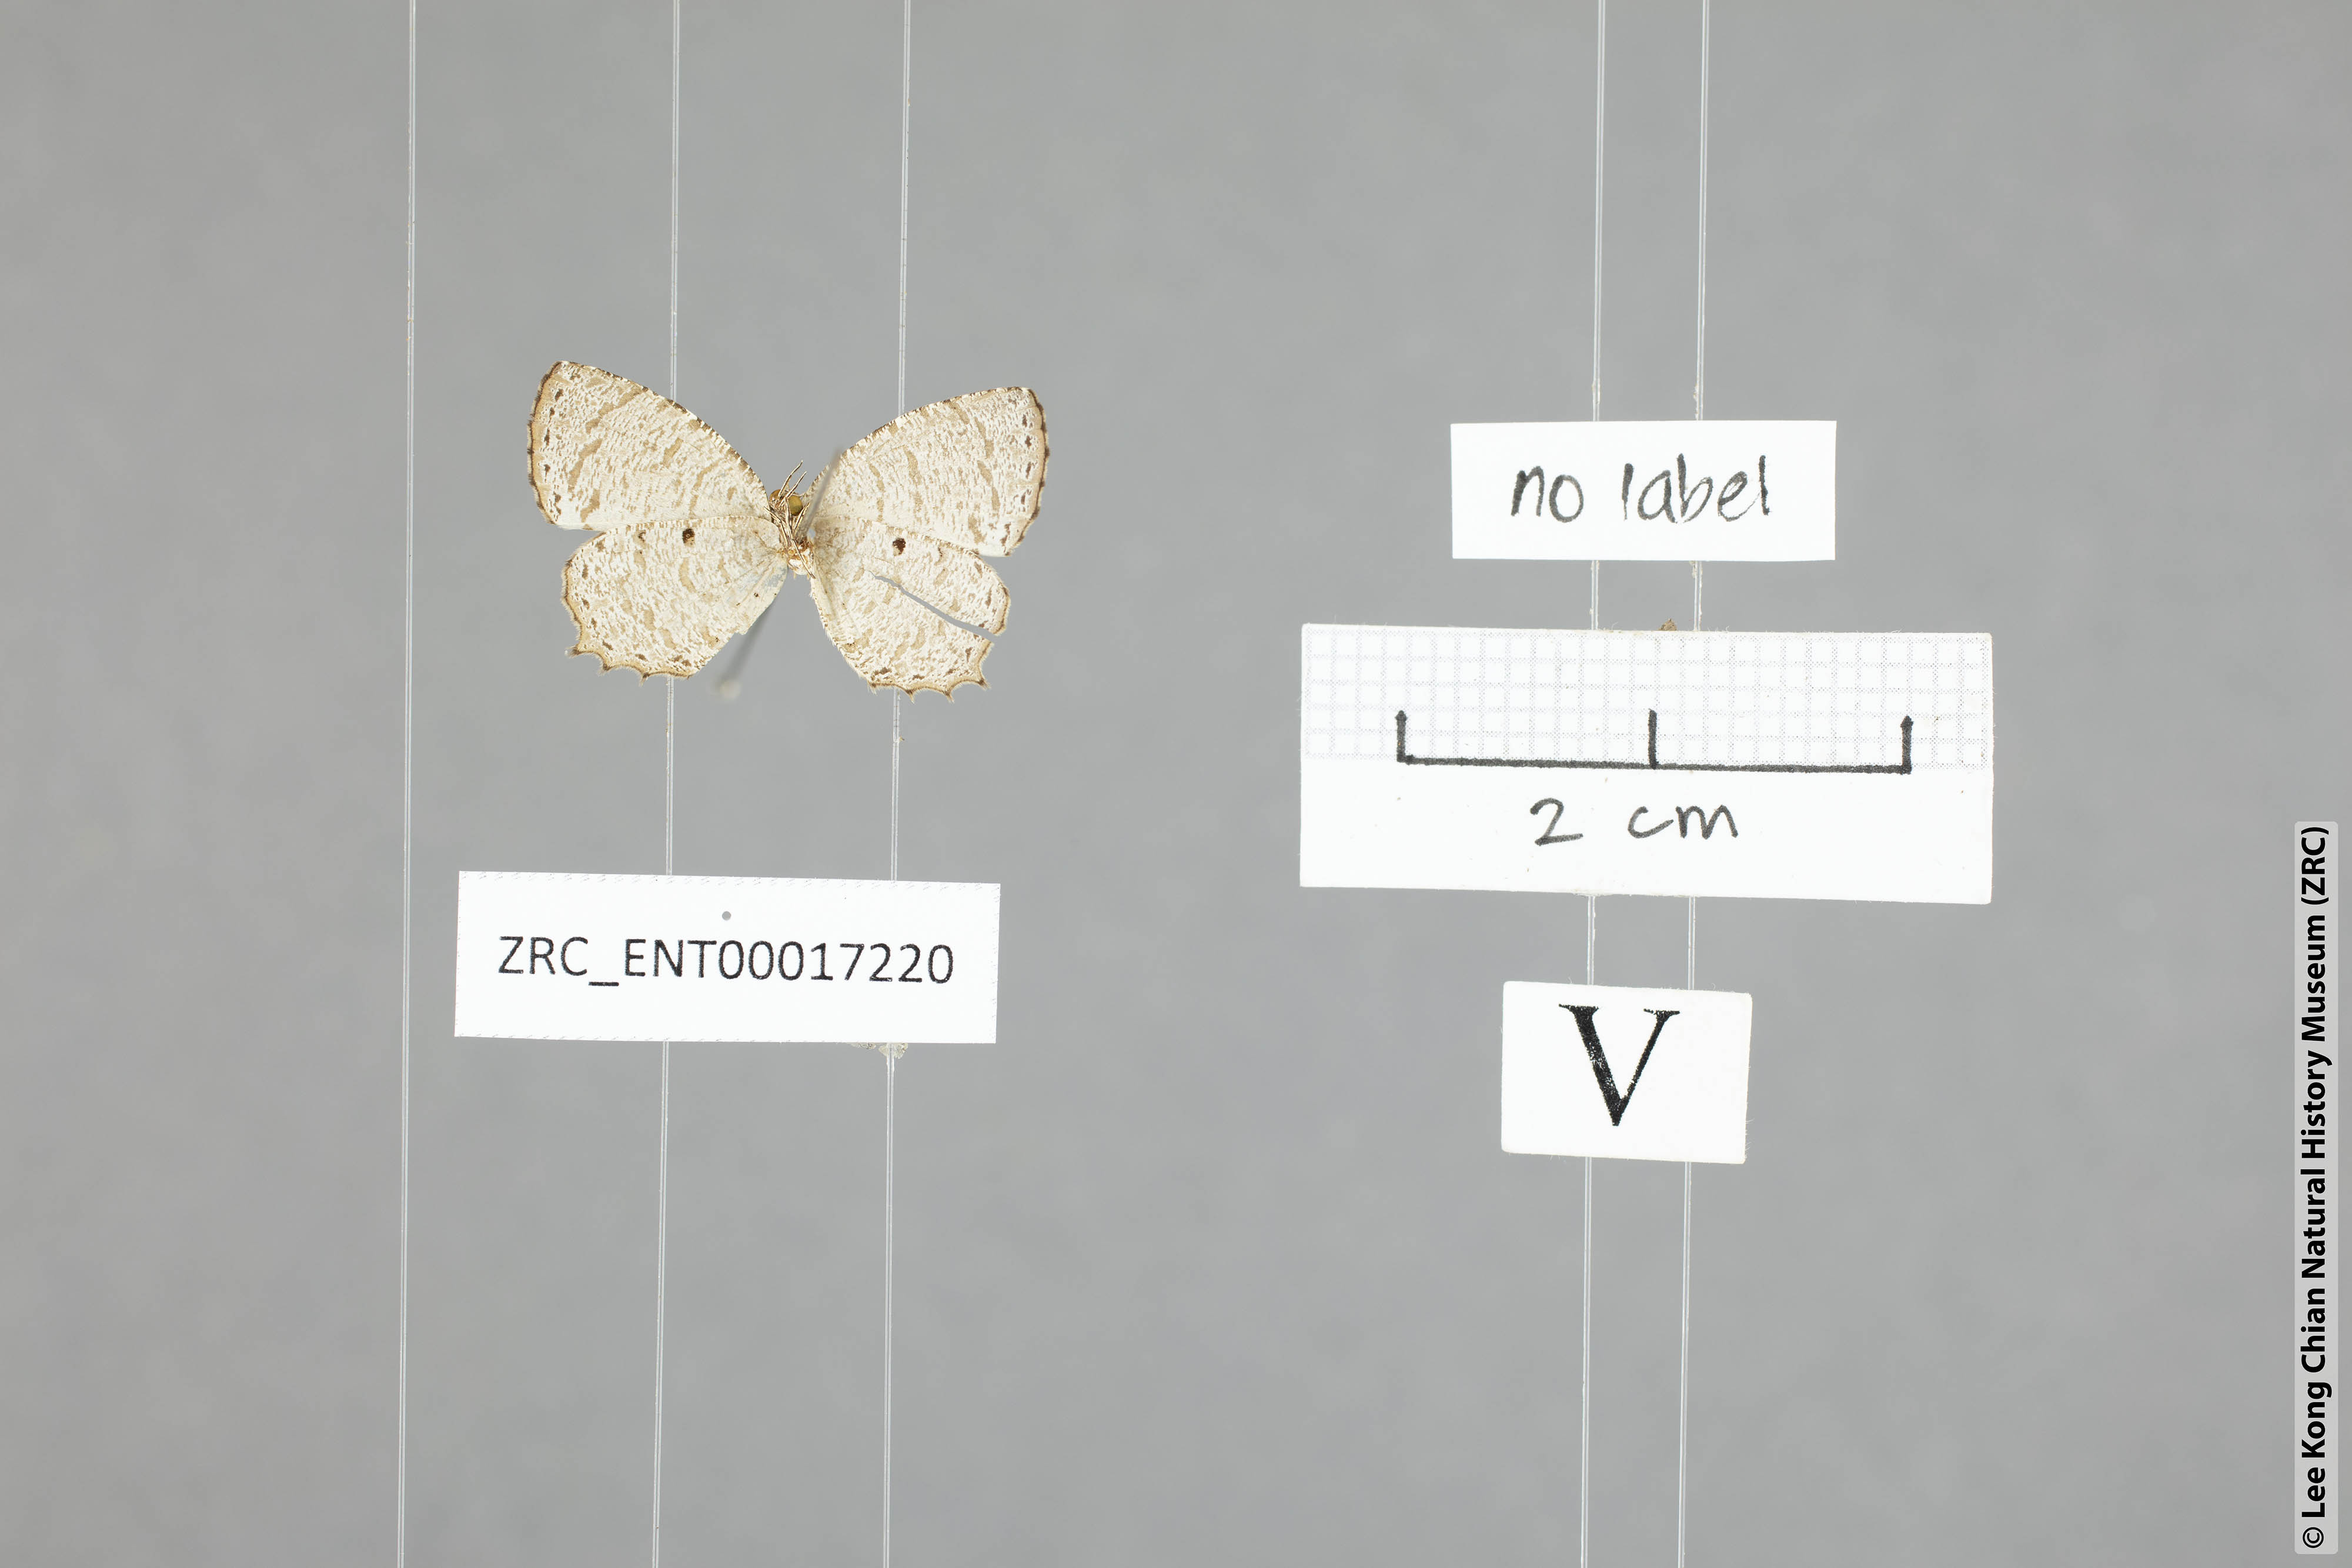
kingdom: Animalia
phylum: Arthropoda
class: Insecta
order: Lepidoptera
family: Lycaenidae
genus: Allotinus
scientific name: Allotinus davidis
